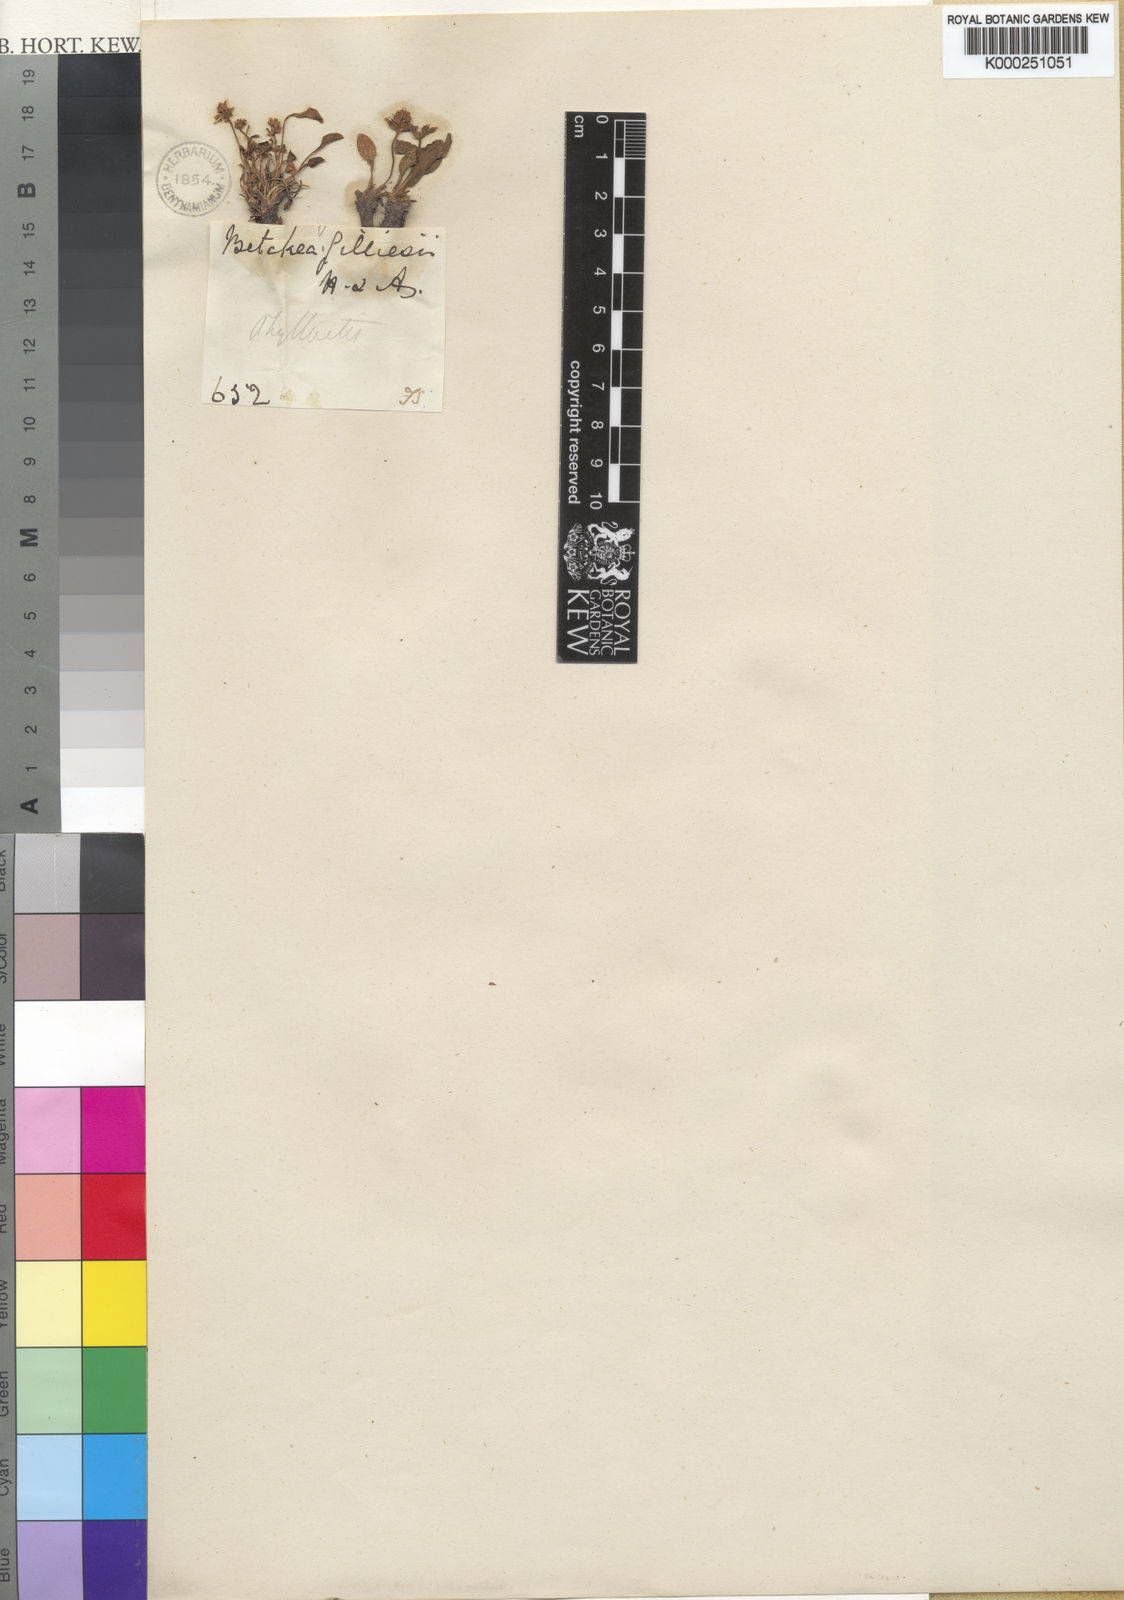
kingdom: Plantae
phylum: Tracheophyta
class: Magnoliopsida
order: Dipsacales
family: Caprifoliaceae
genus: Valeriana
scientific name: Valeriana macrorhiza
